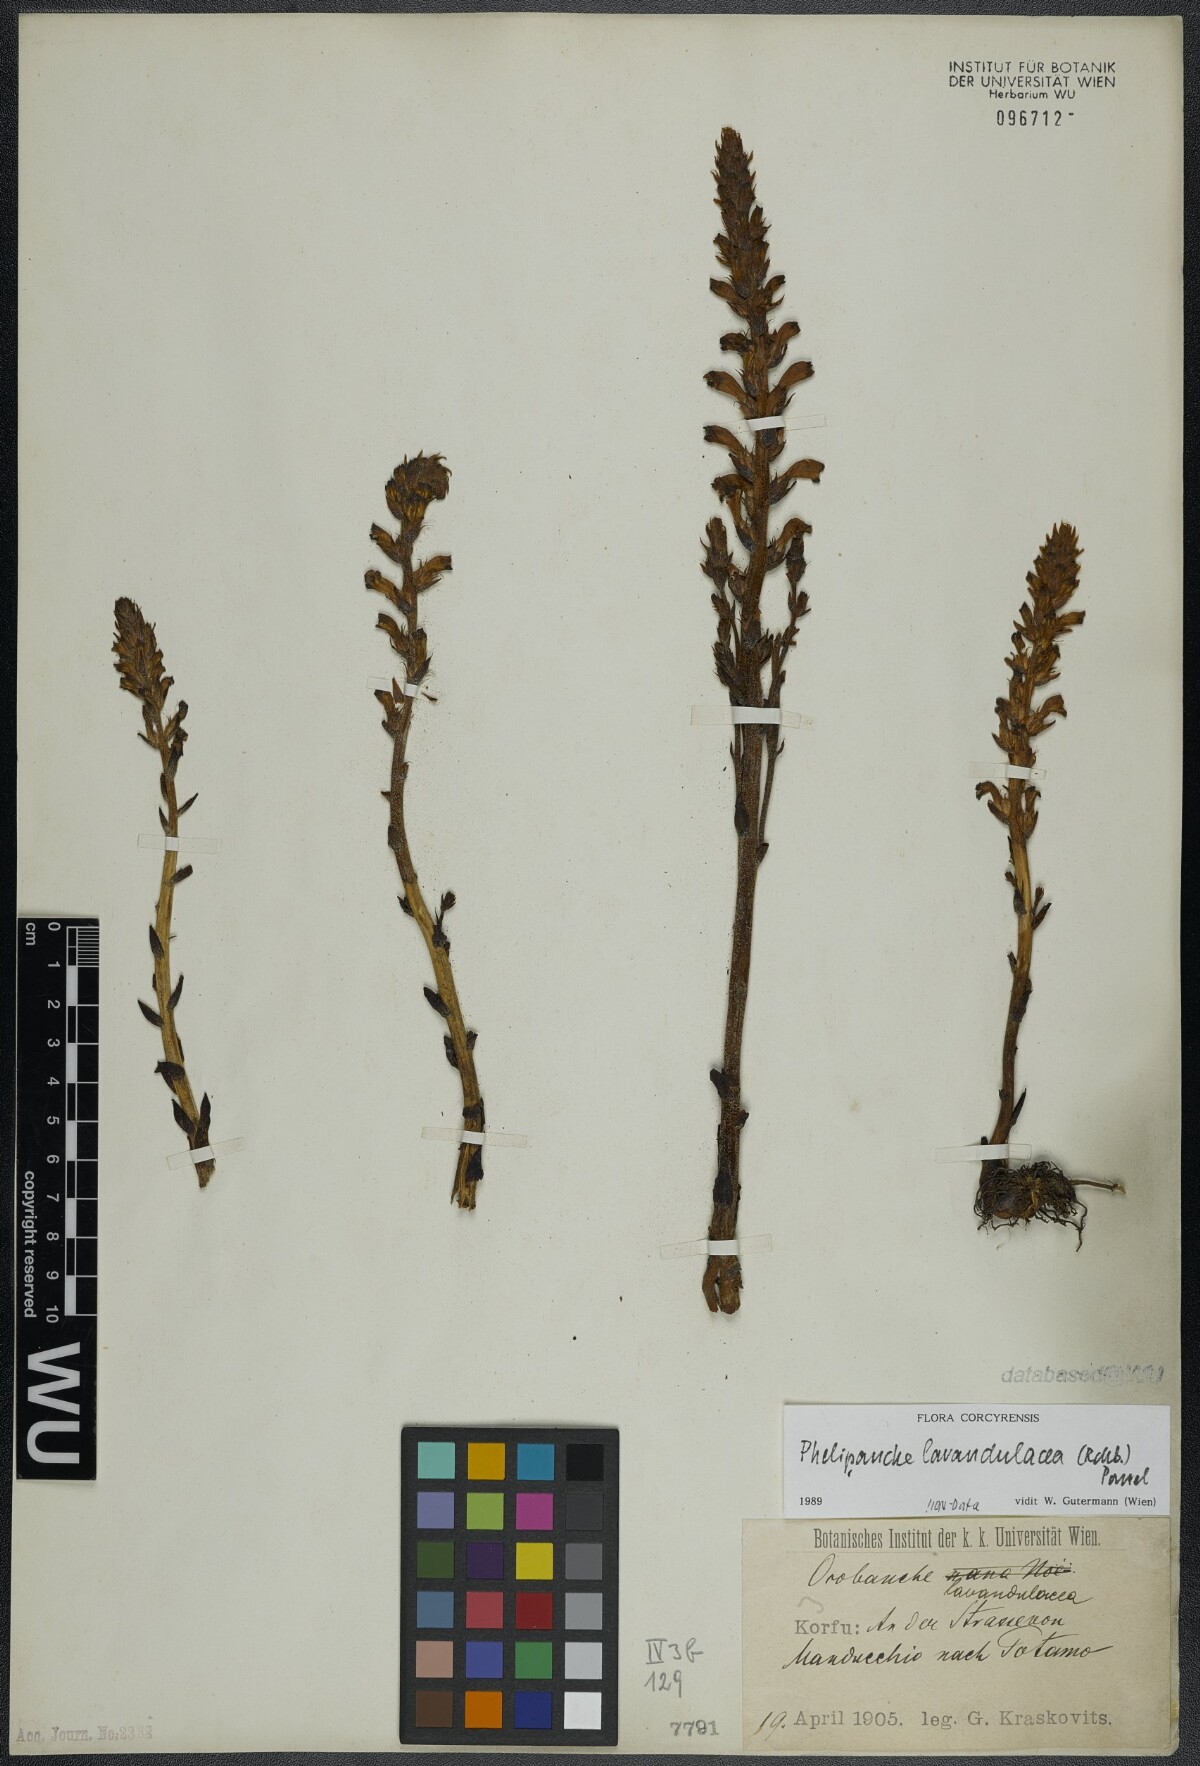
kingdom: Plantae
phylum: Tracheophyta
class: Magnoliopsida
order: Lamiales
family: Orobanchaceae
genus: Phelipanche
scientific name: Phelipanche lavandulacea
